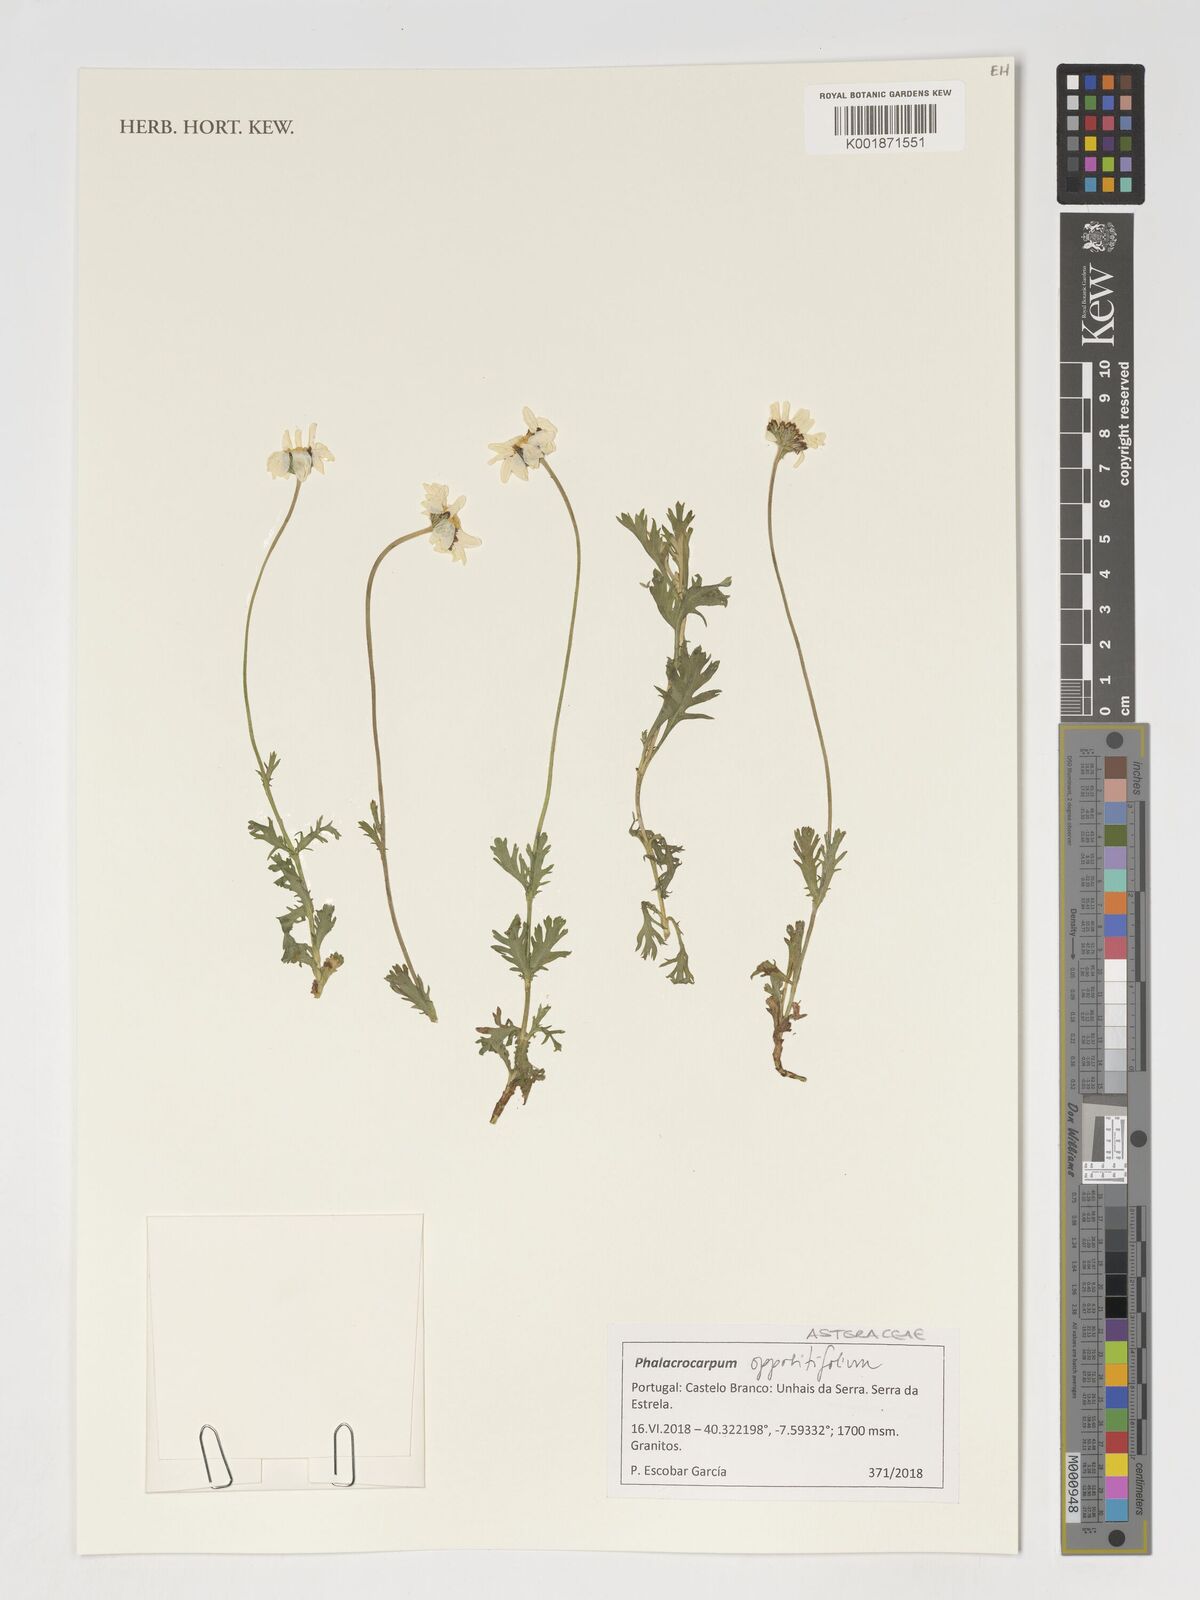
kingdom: Plantae
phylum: Tracheophyta
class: Magnoliopsida
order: Asterales
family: Asteraceae
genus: Phalacrocarpum
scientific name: Phalacrocarpum oppositifolium
